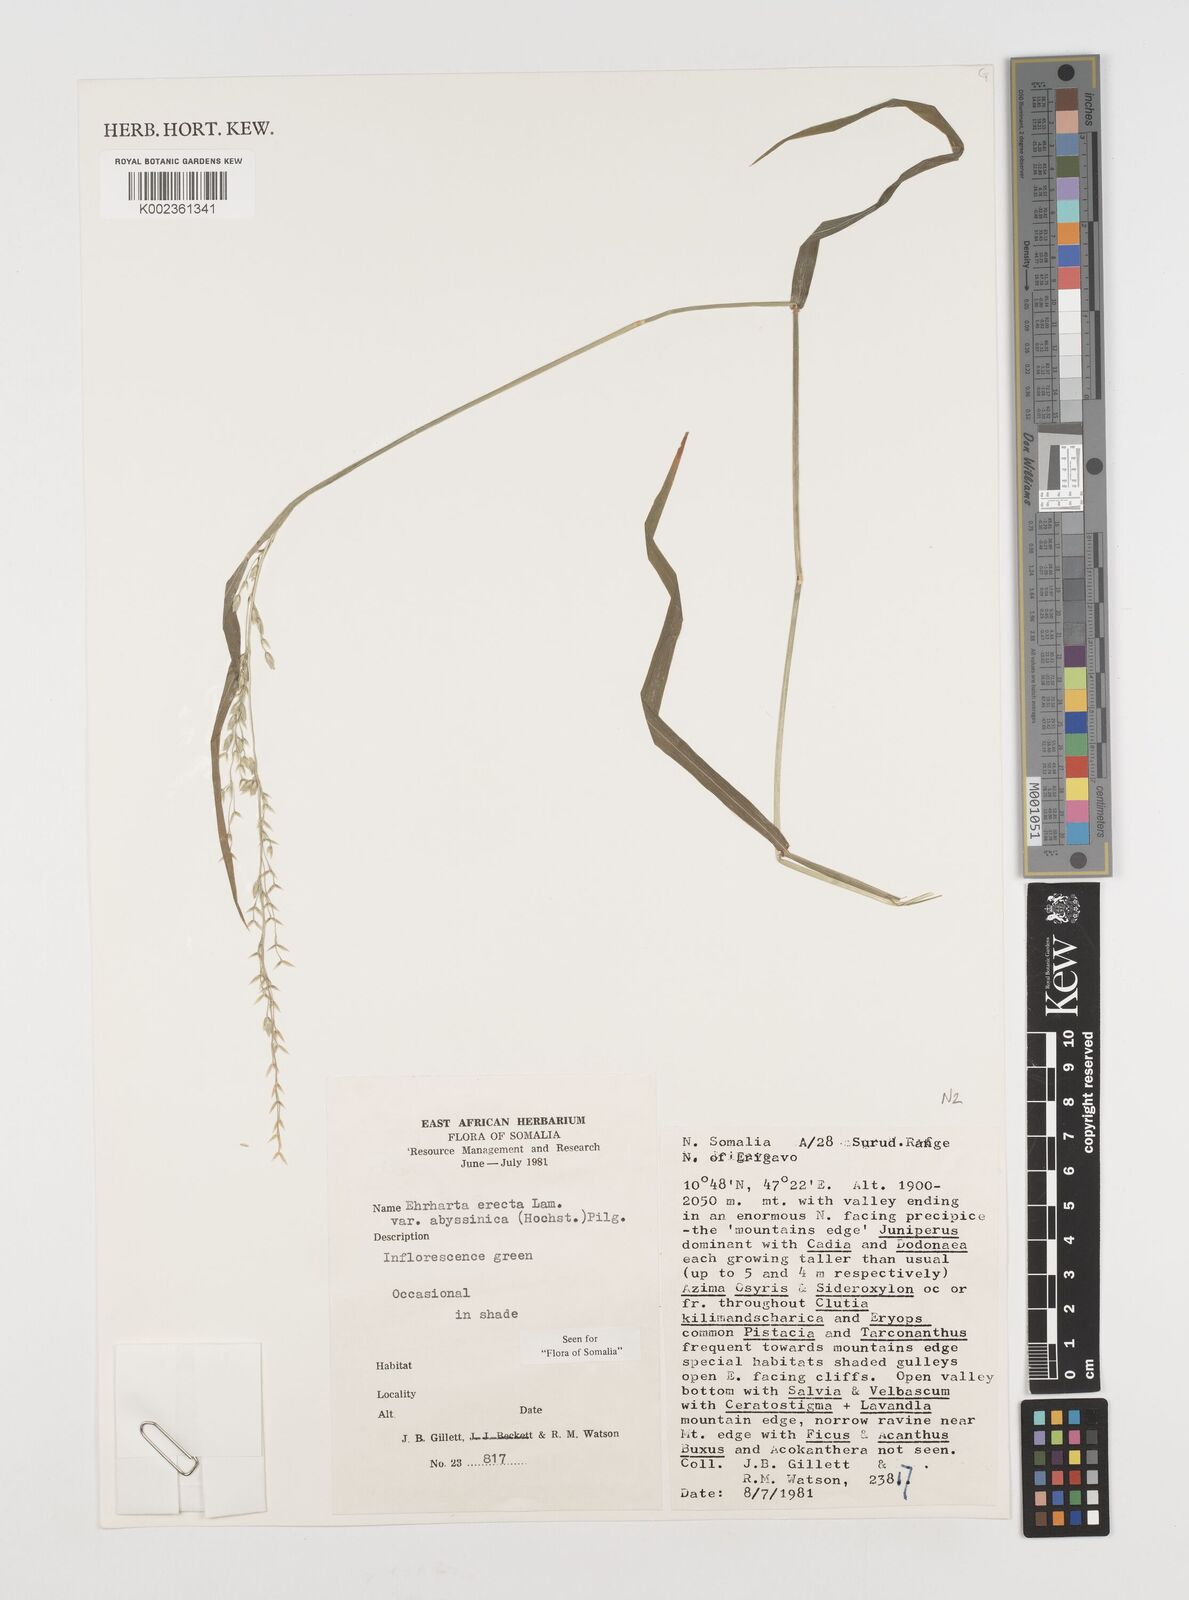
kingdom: Plantae
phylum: Tracheophyta
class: Liliopsida
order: Poales
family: Poaceae
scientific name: Poaceae
